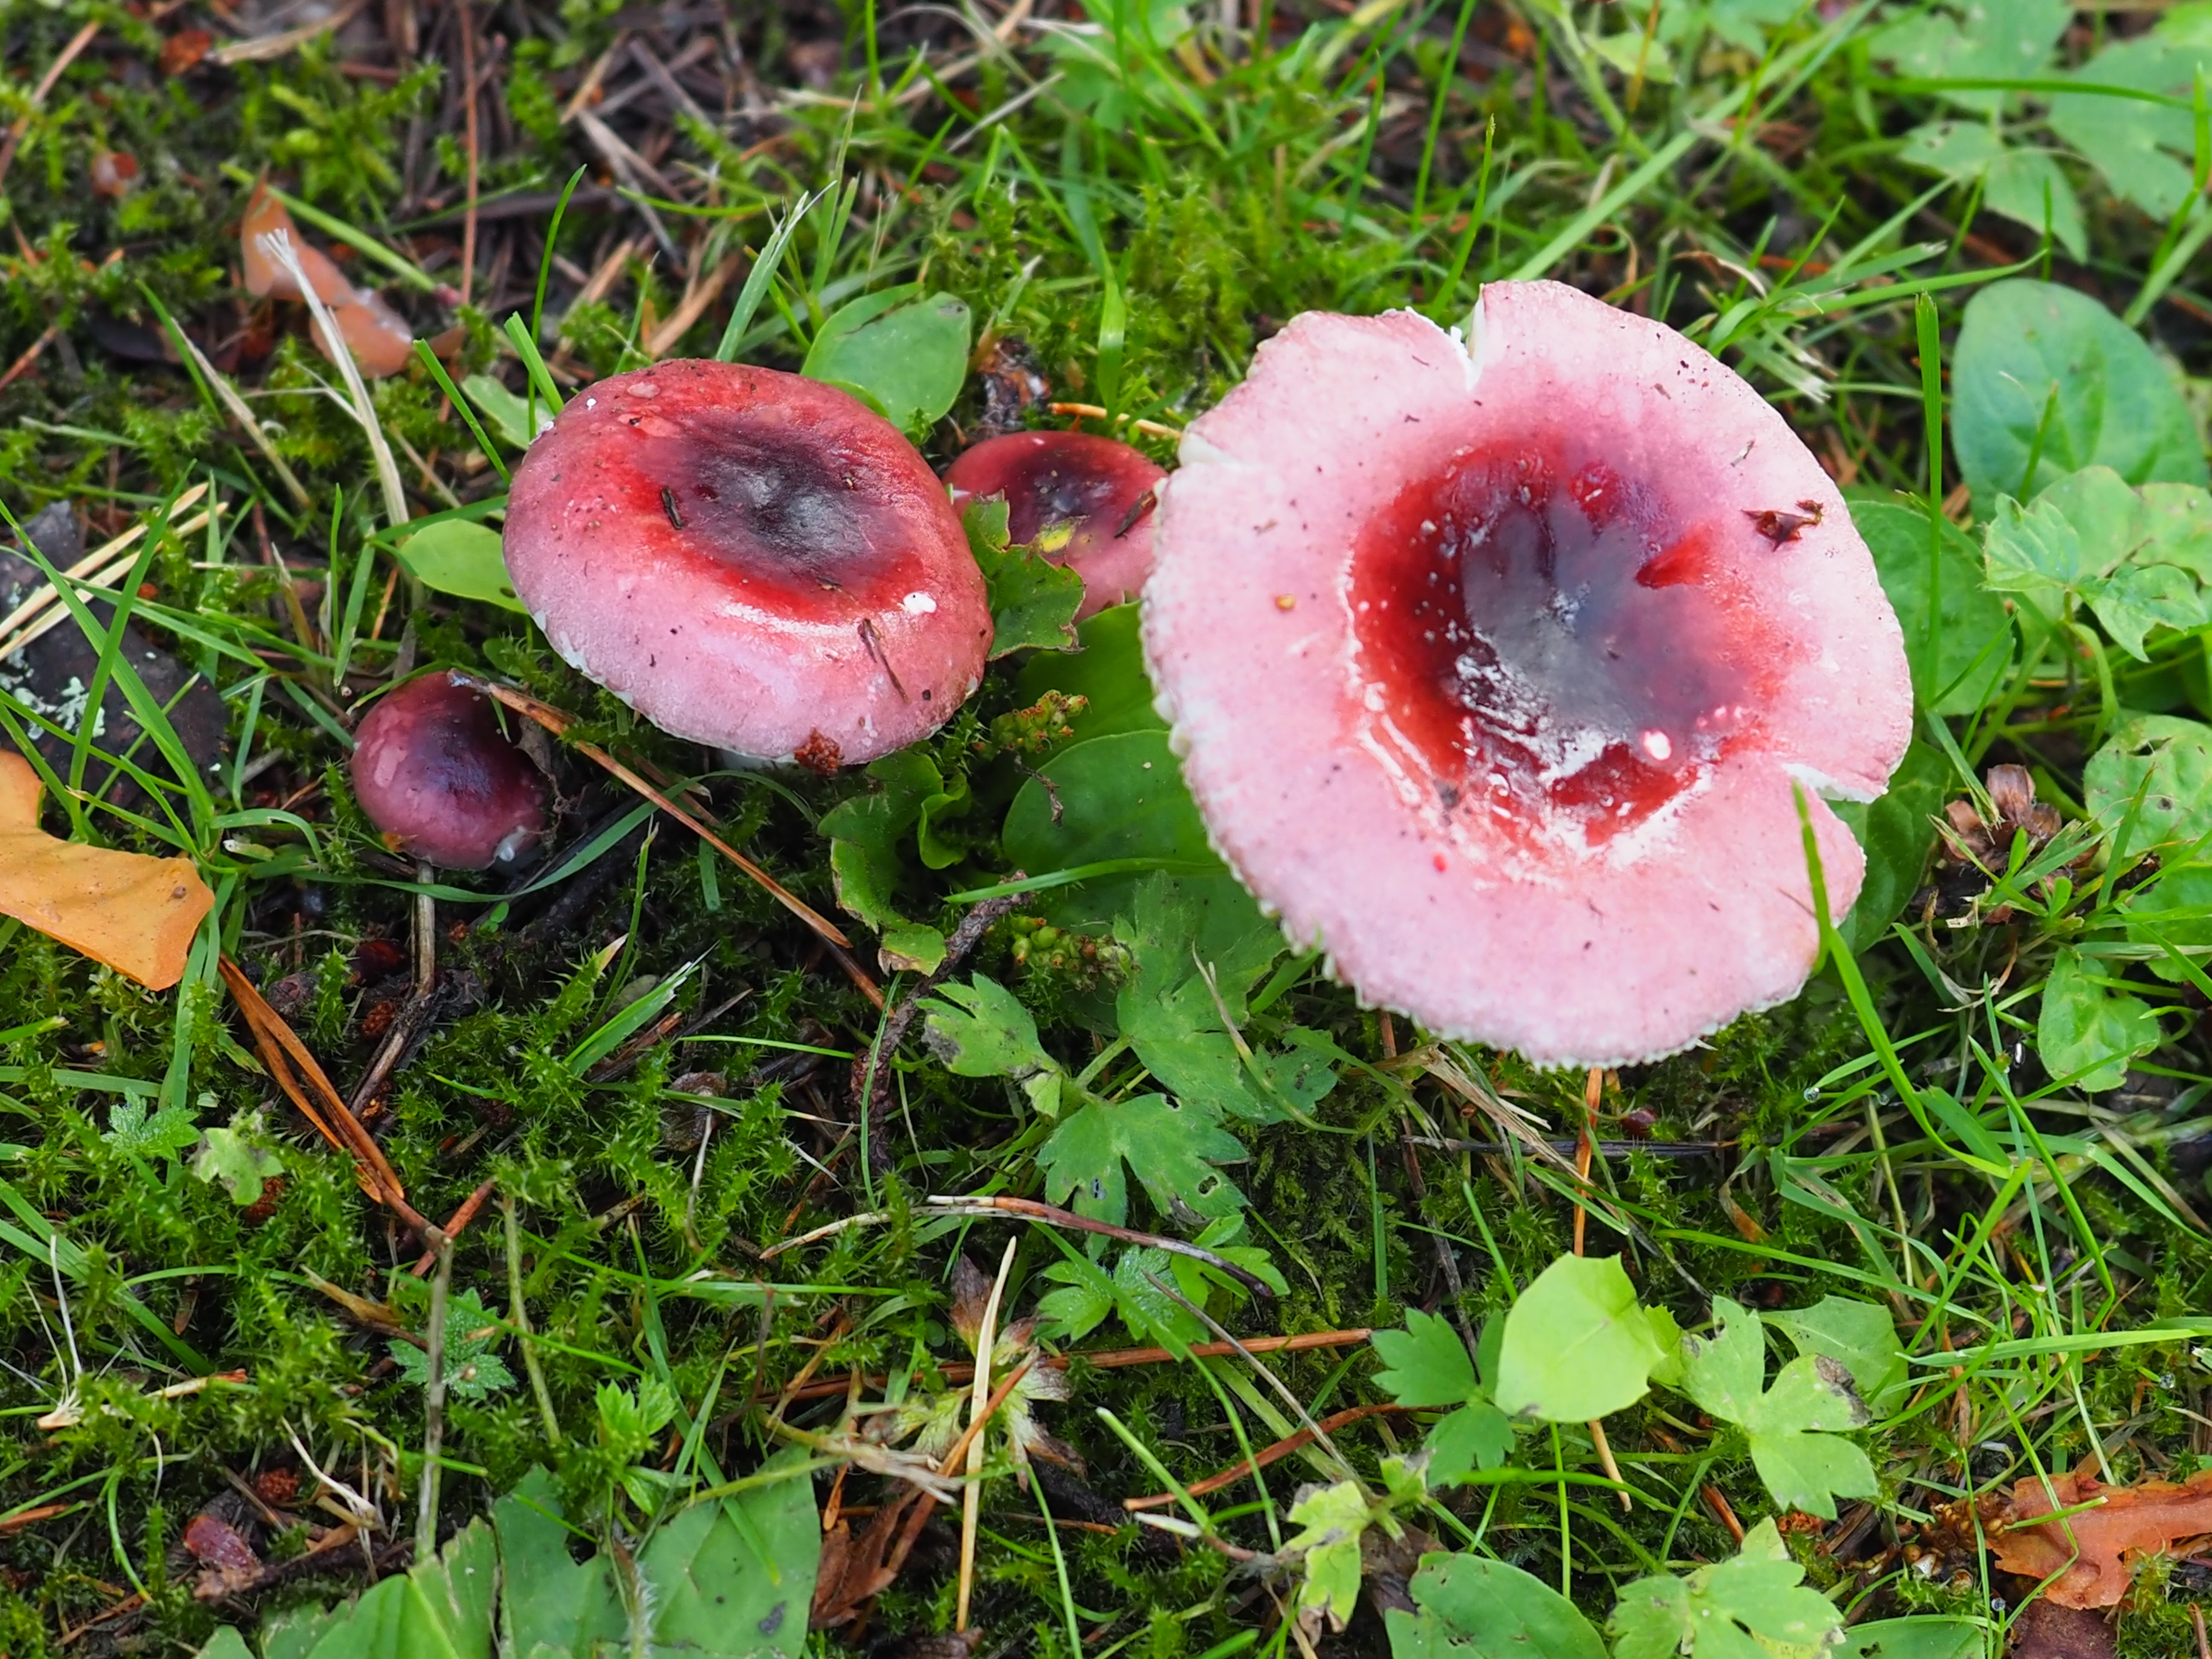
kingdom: Fungi
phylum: Basidiomycota
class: Agaricomycetes
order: Russulales
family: Russulaceae
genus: Russula
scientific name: Russula cessans
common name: Tardy brittlegill
